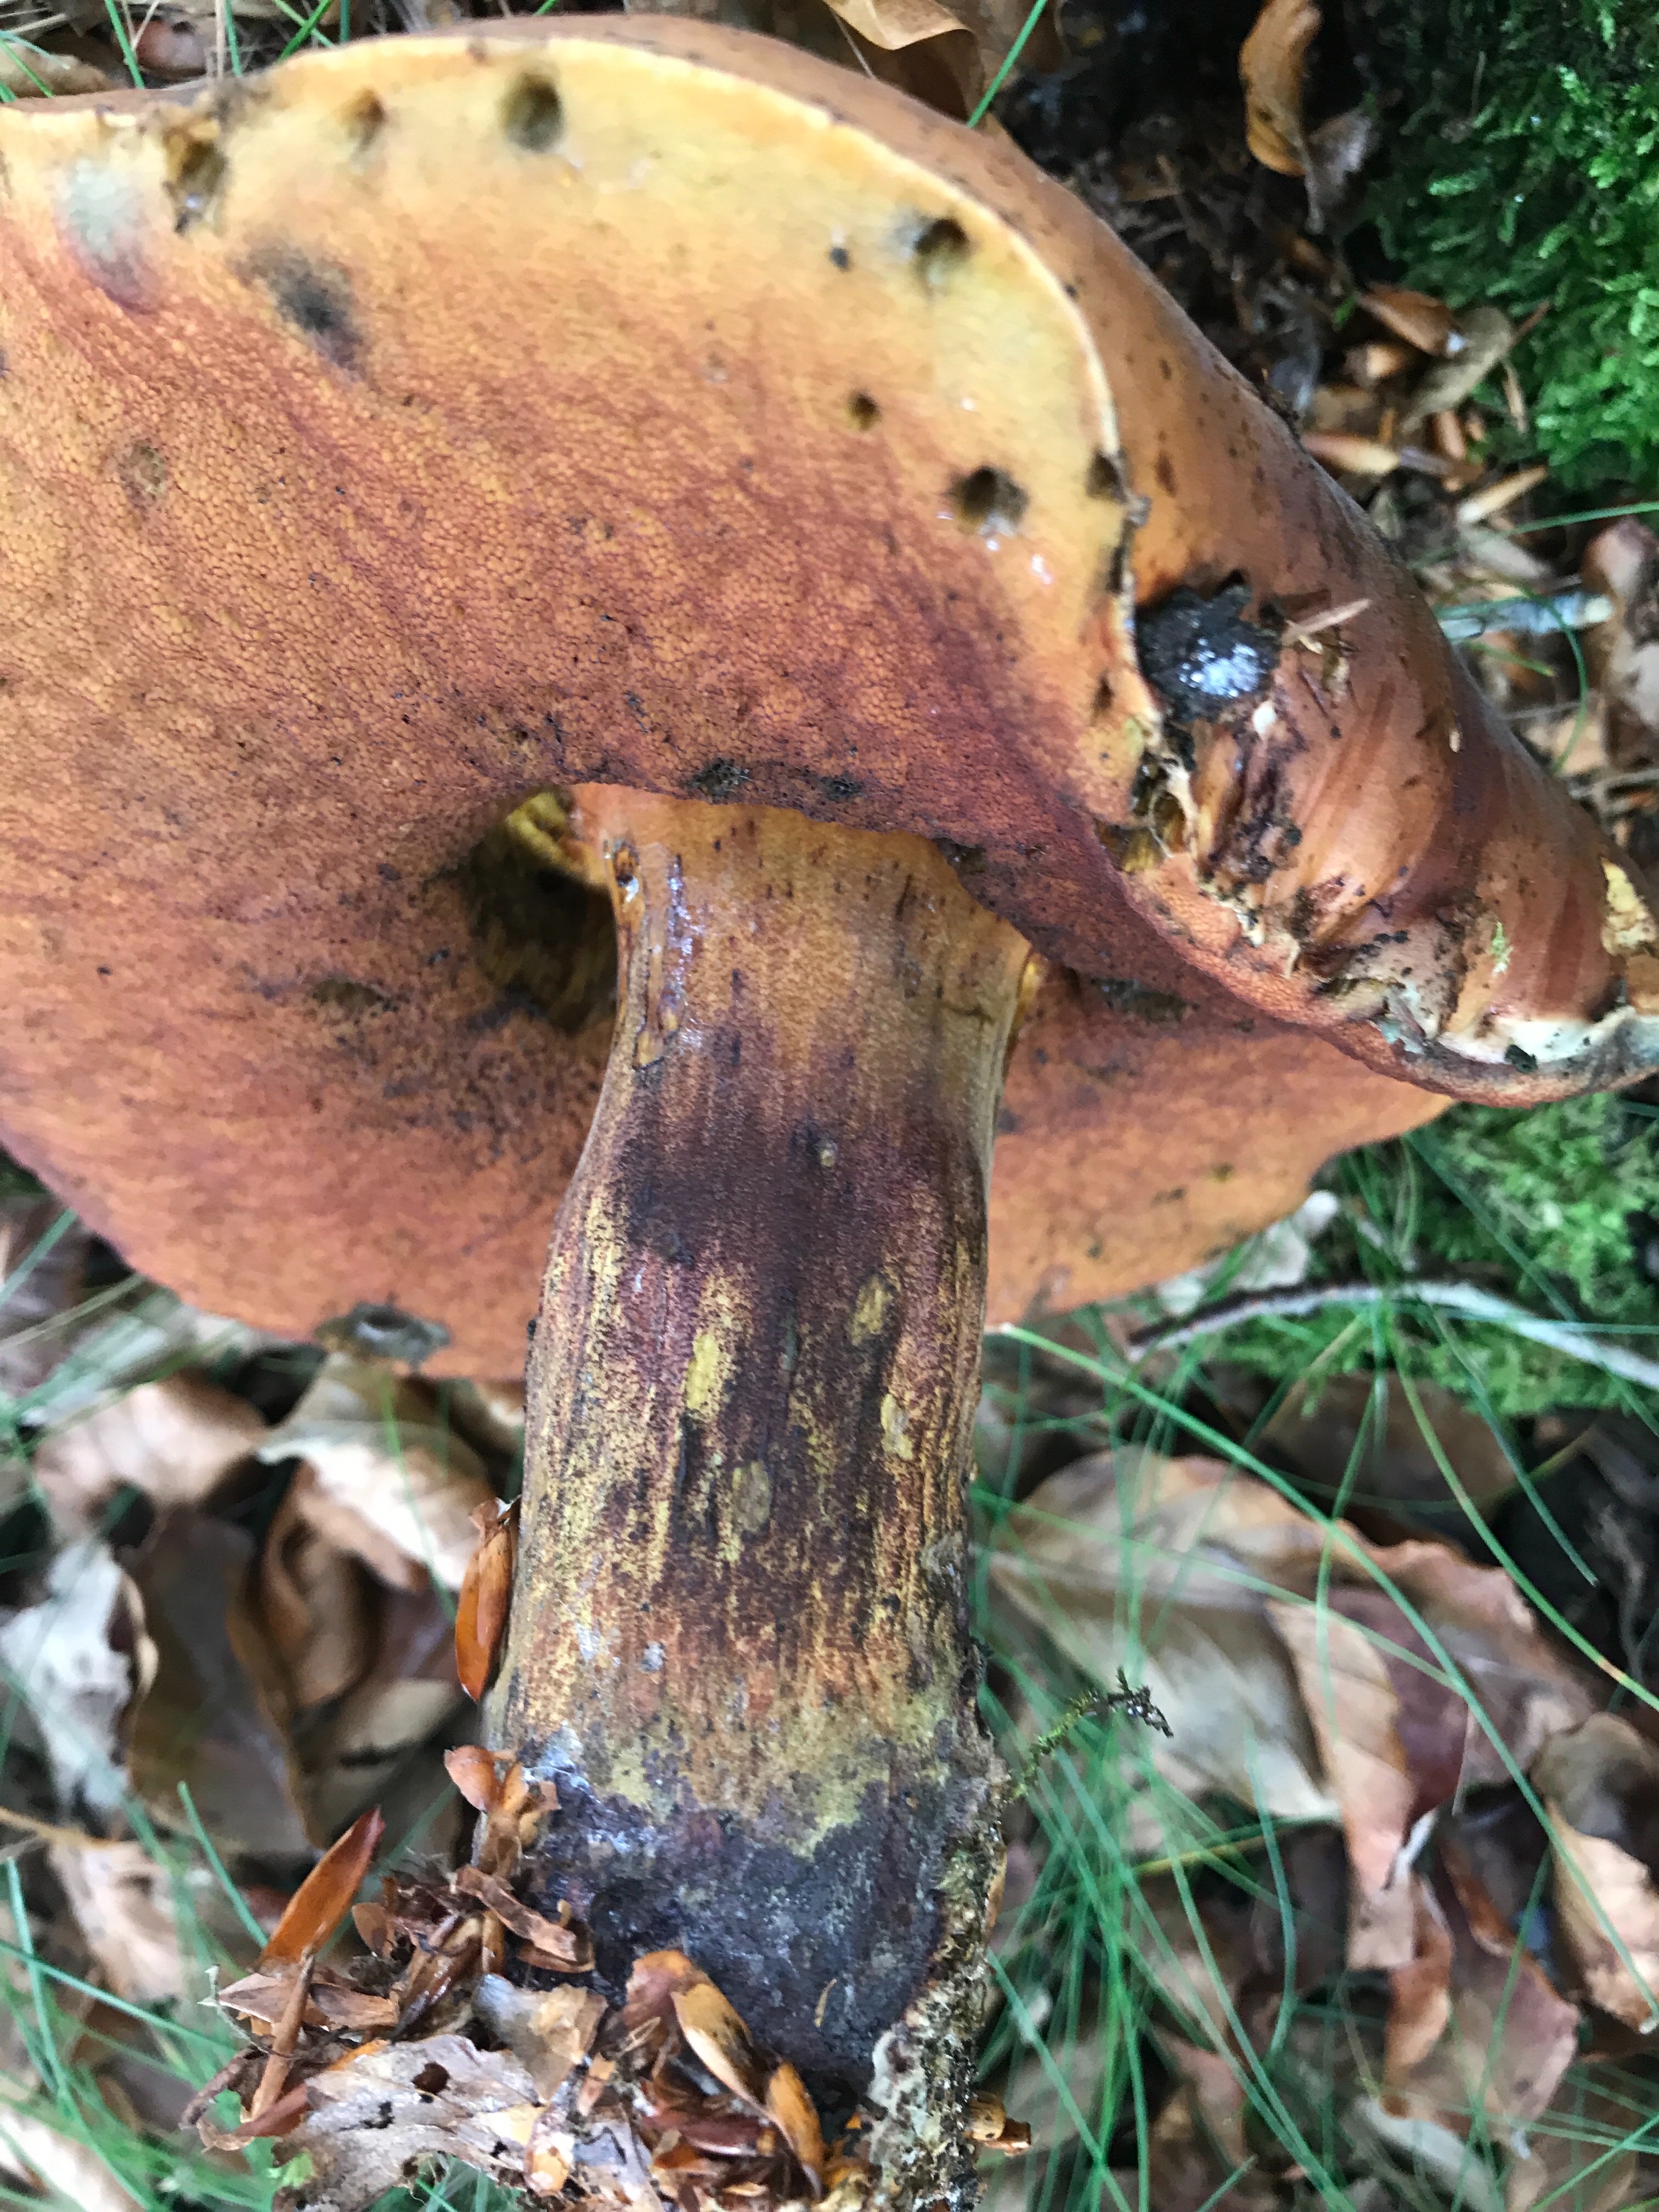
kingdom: Fungi
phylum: Basidiomycota
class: Agaricomycetes
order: Boletales
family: Boletaceae
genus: Neoboletus
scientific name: Neoboletus erythropus
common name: punktstokket indigorørhat
